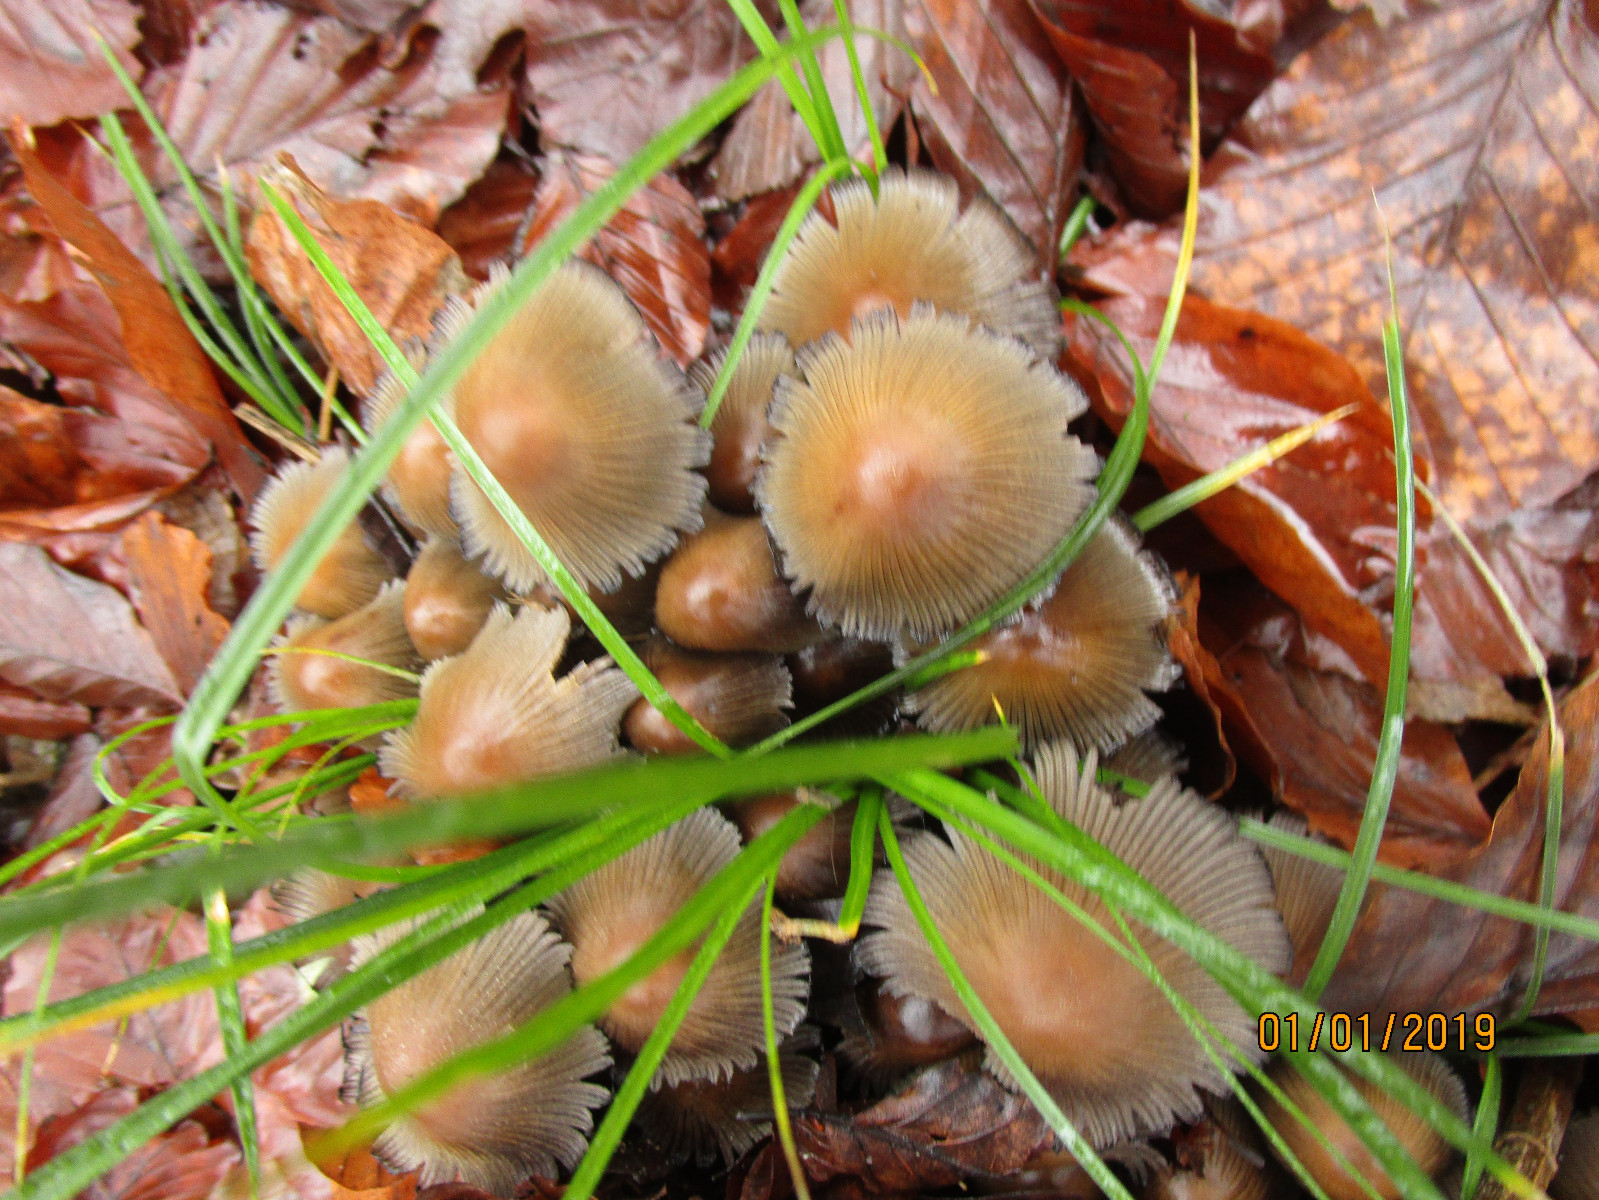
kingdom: Fungi
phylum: Basidiomycota
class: Agaricomycetes
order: Agaricales
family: Psathyrellaceae
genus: Coprinellus
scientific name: Coprinellus micaceus
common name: glimmer-blækhat
